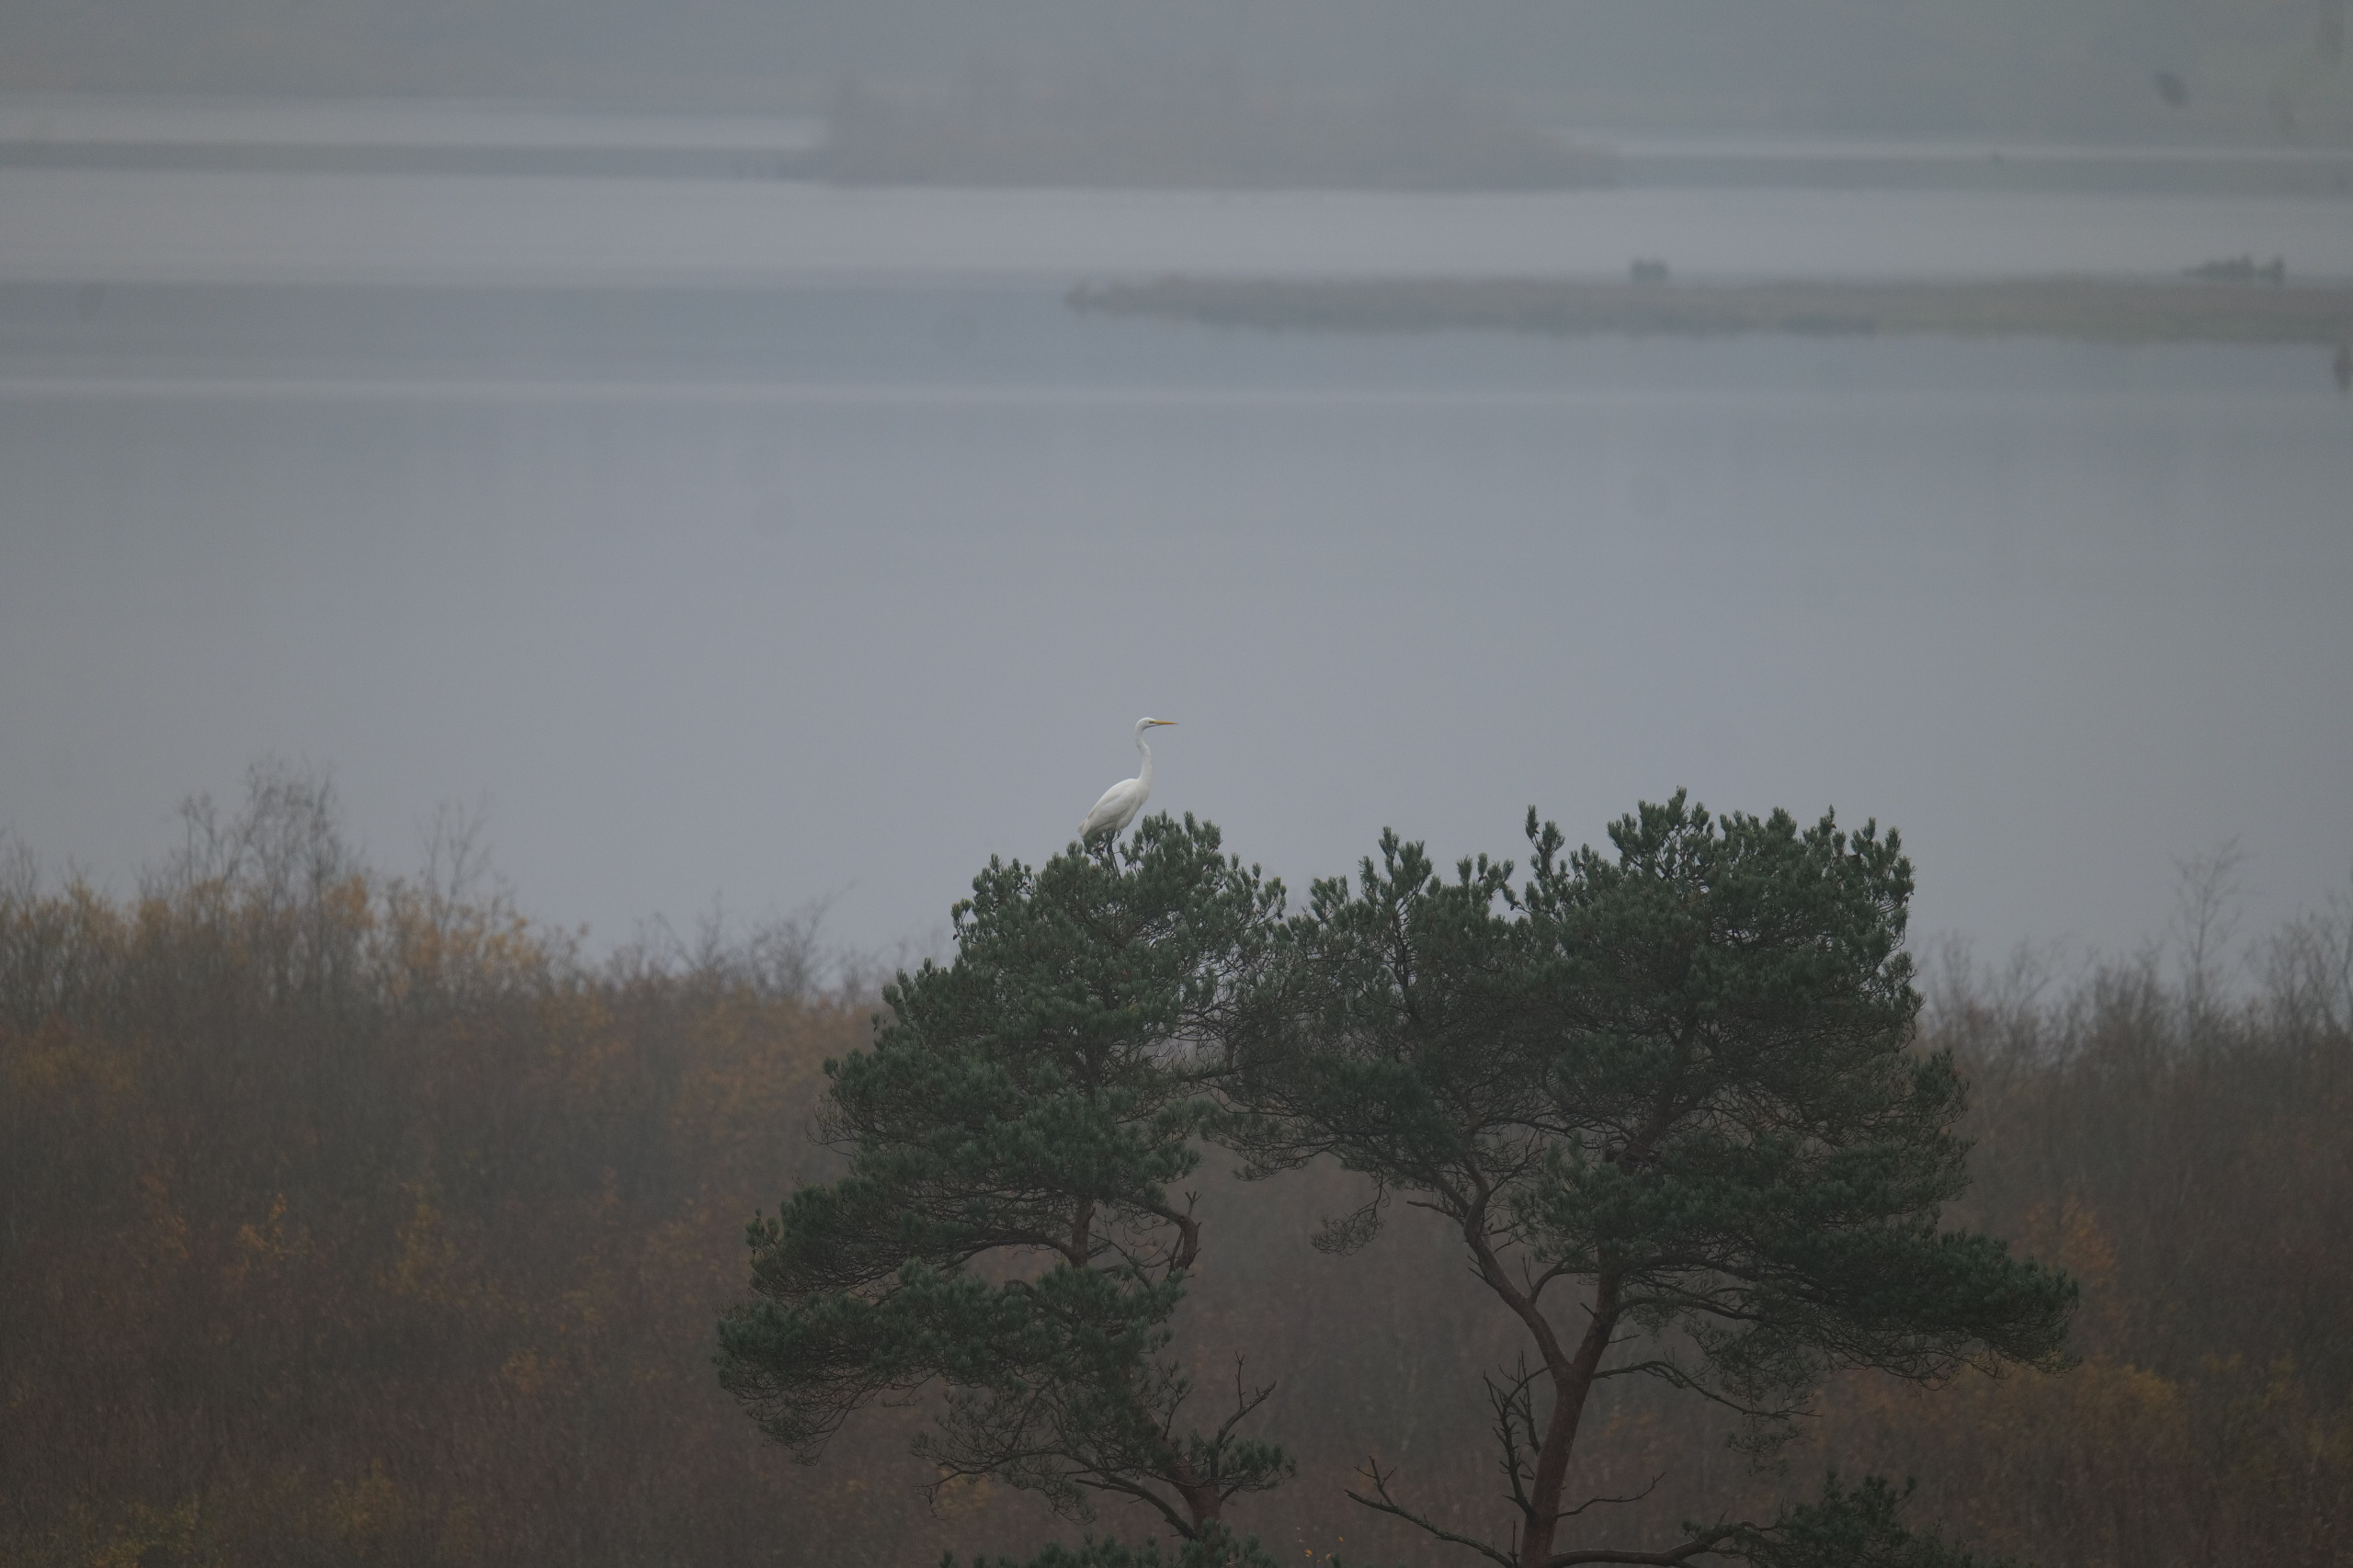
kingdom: Animalia
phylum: Chordata
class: Aves
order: Pelecaniformes
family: Ardeidae
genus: Ardea
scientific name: Ardea alba
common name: Sølvhejre
